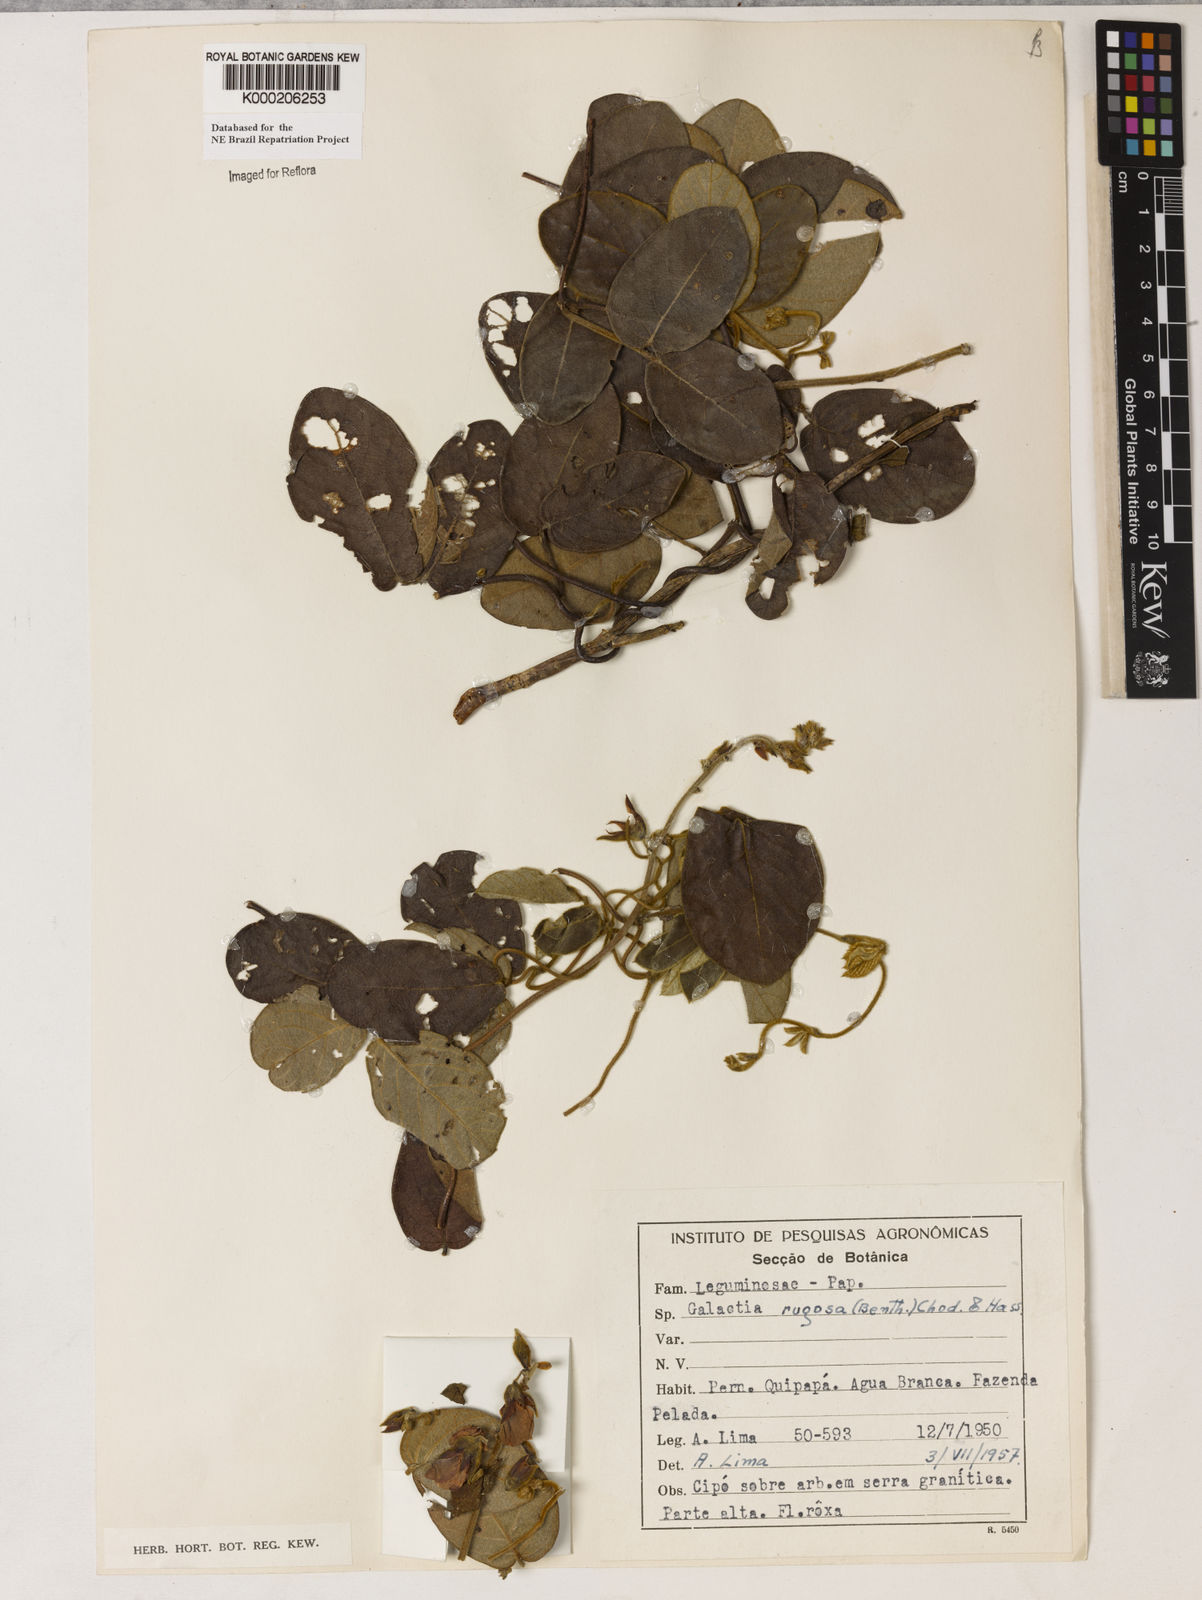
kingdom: Plantae
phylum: Tracheophyta
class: Magnoliopsida
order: Fabales
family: Fabaceae
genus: Cerradicola
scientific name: Cerradicola elliptica
